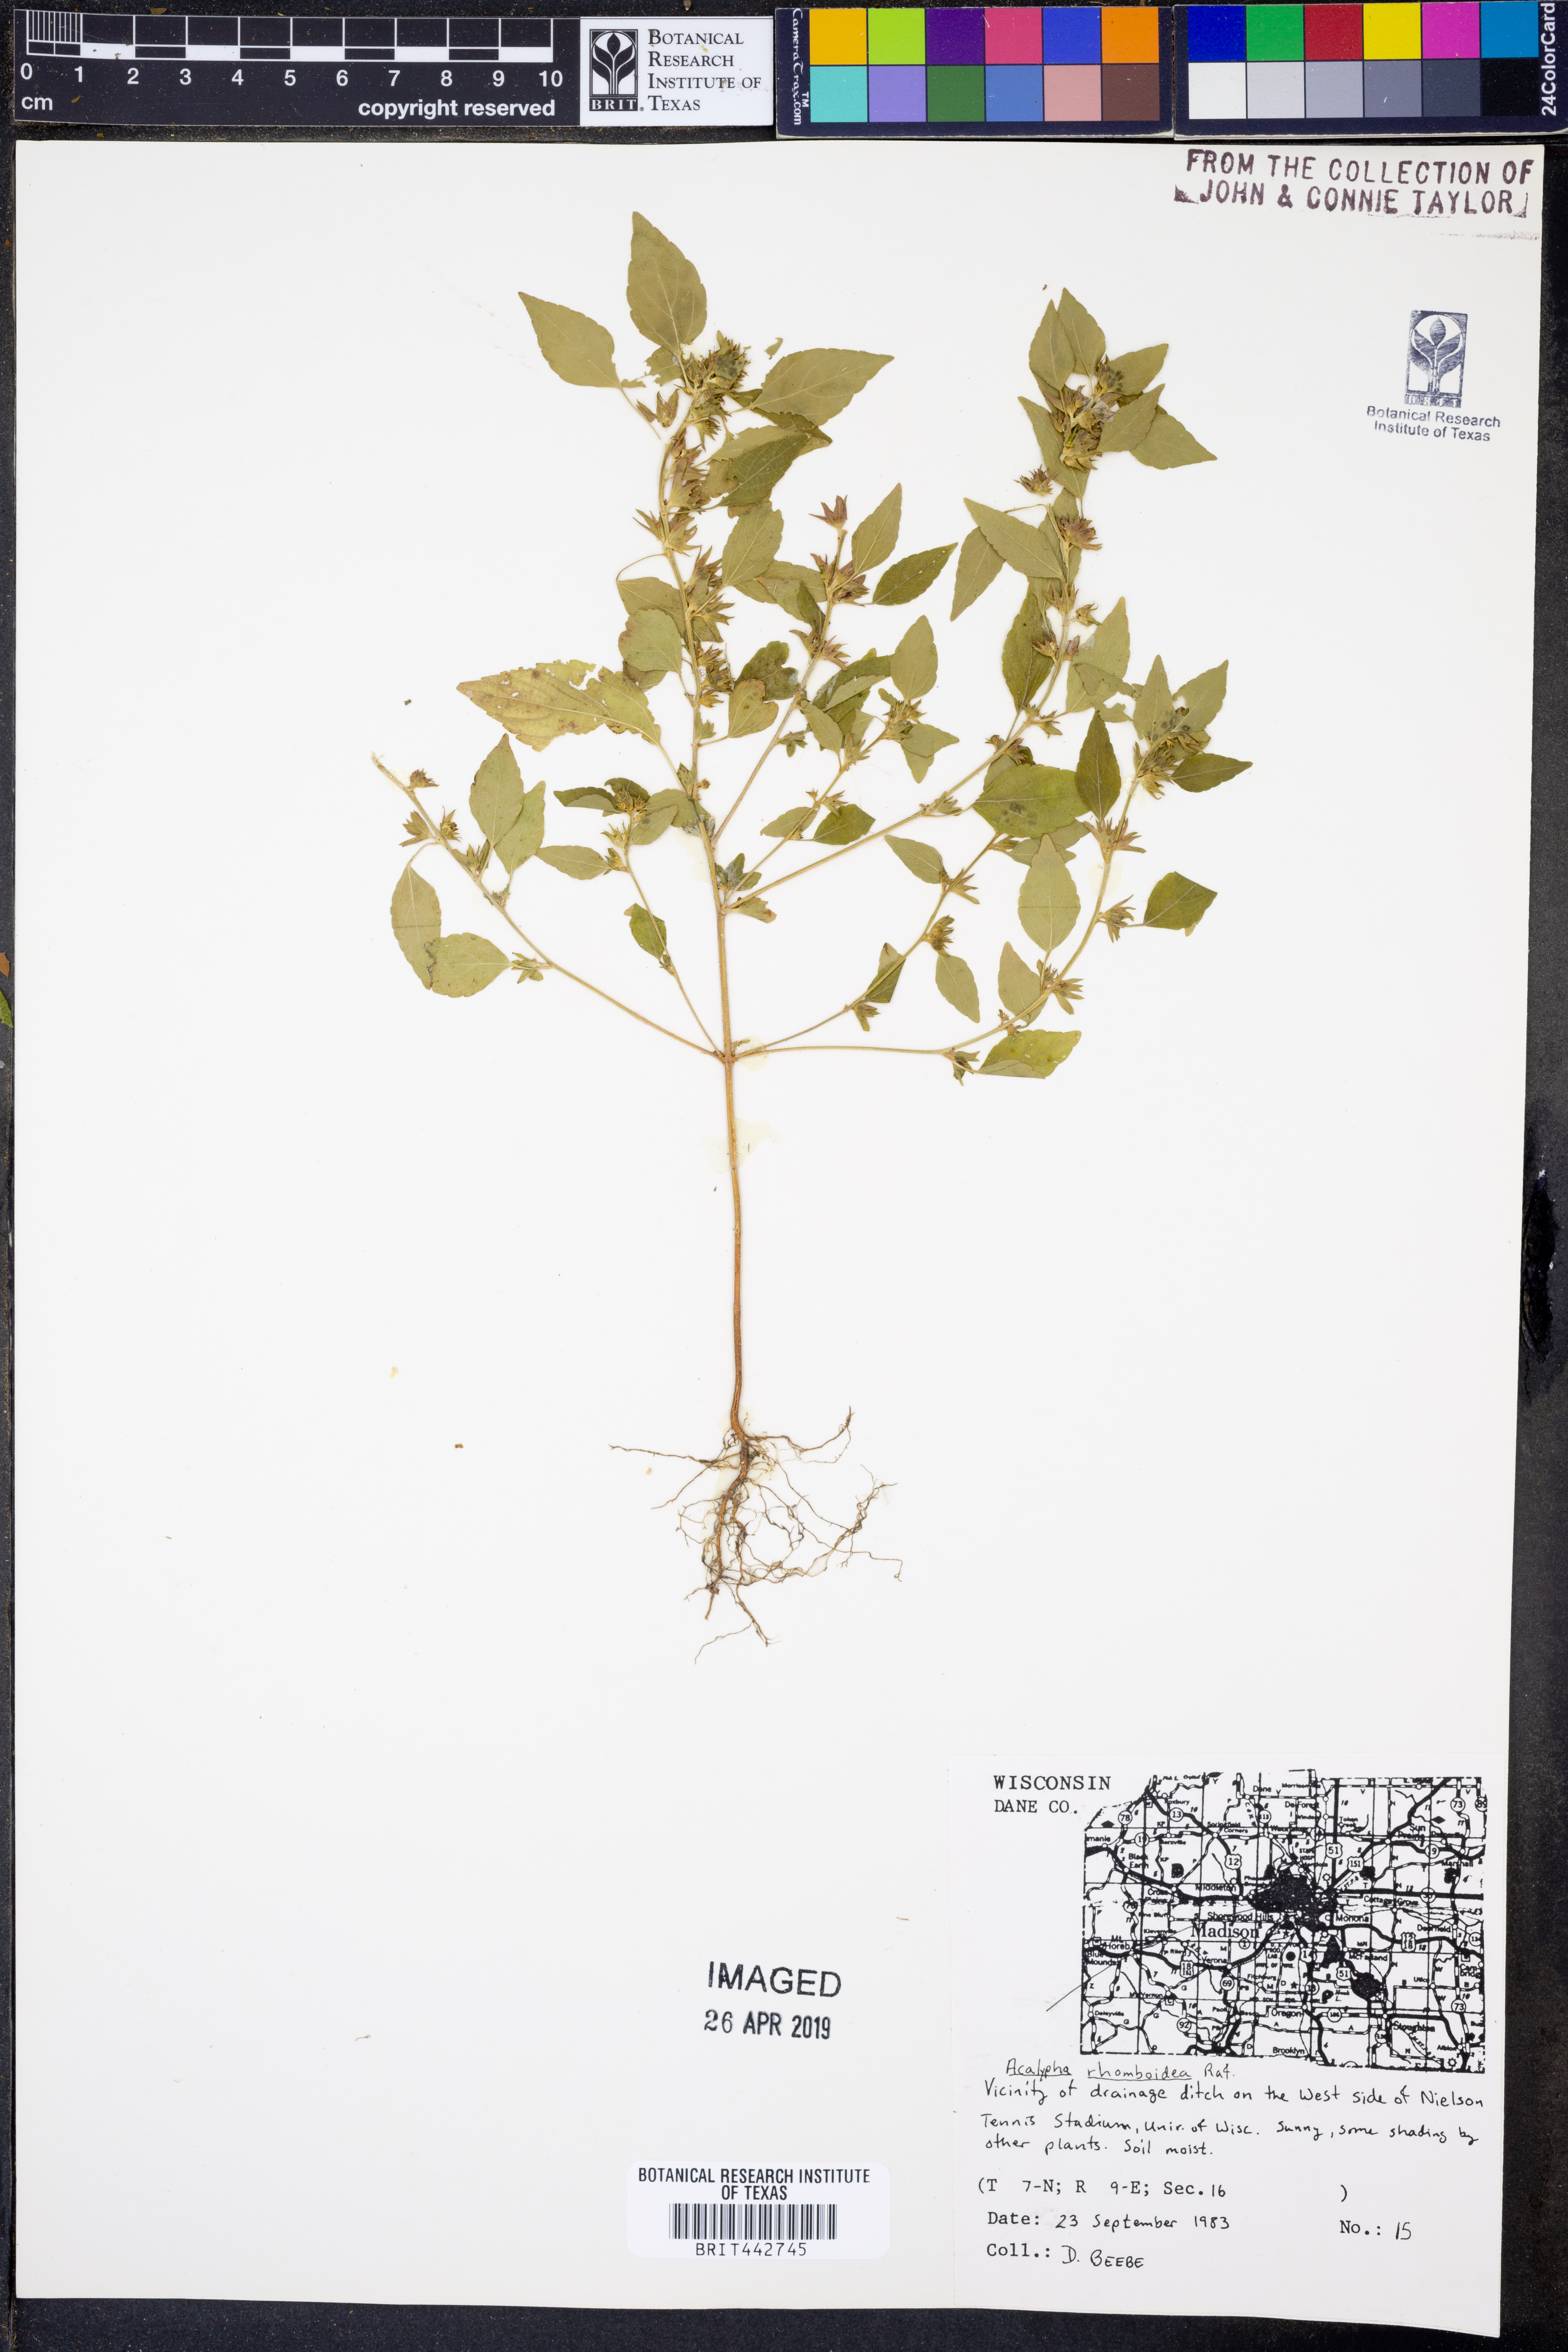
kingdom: Plantae
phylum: Tracheophyta
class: Magnoliopsida
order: Malpighiales
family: Euphorbiaceae
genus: Acalypha
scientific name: Acalypha rhomboidea
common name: Rhombic copperleaf
